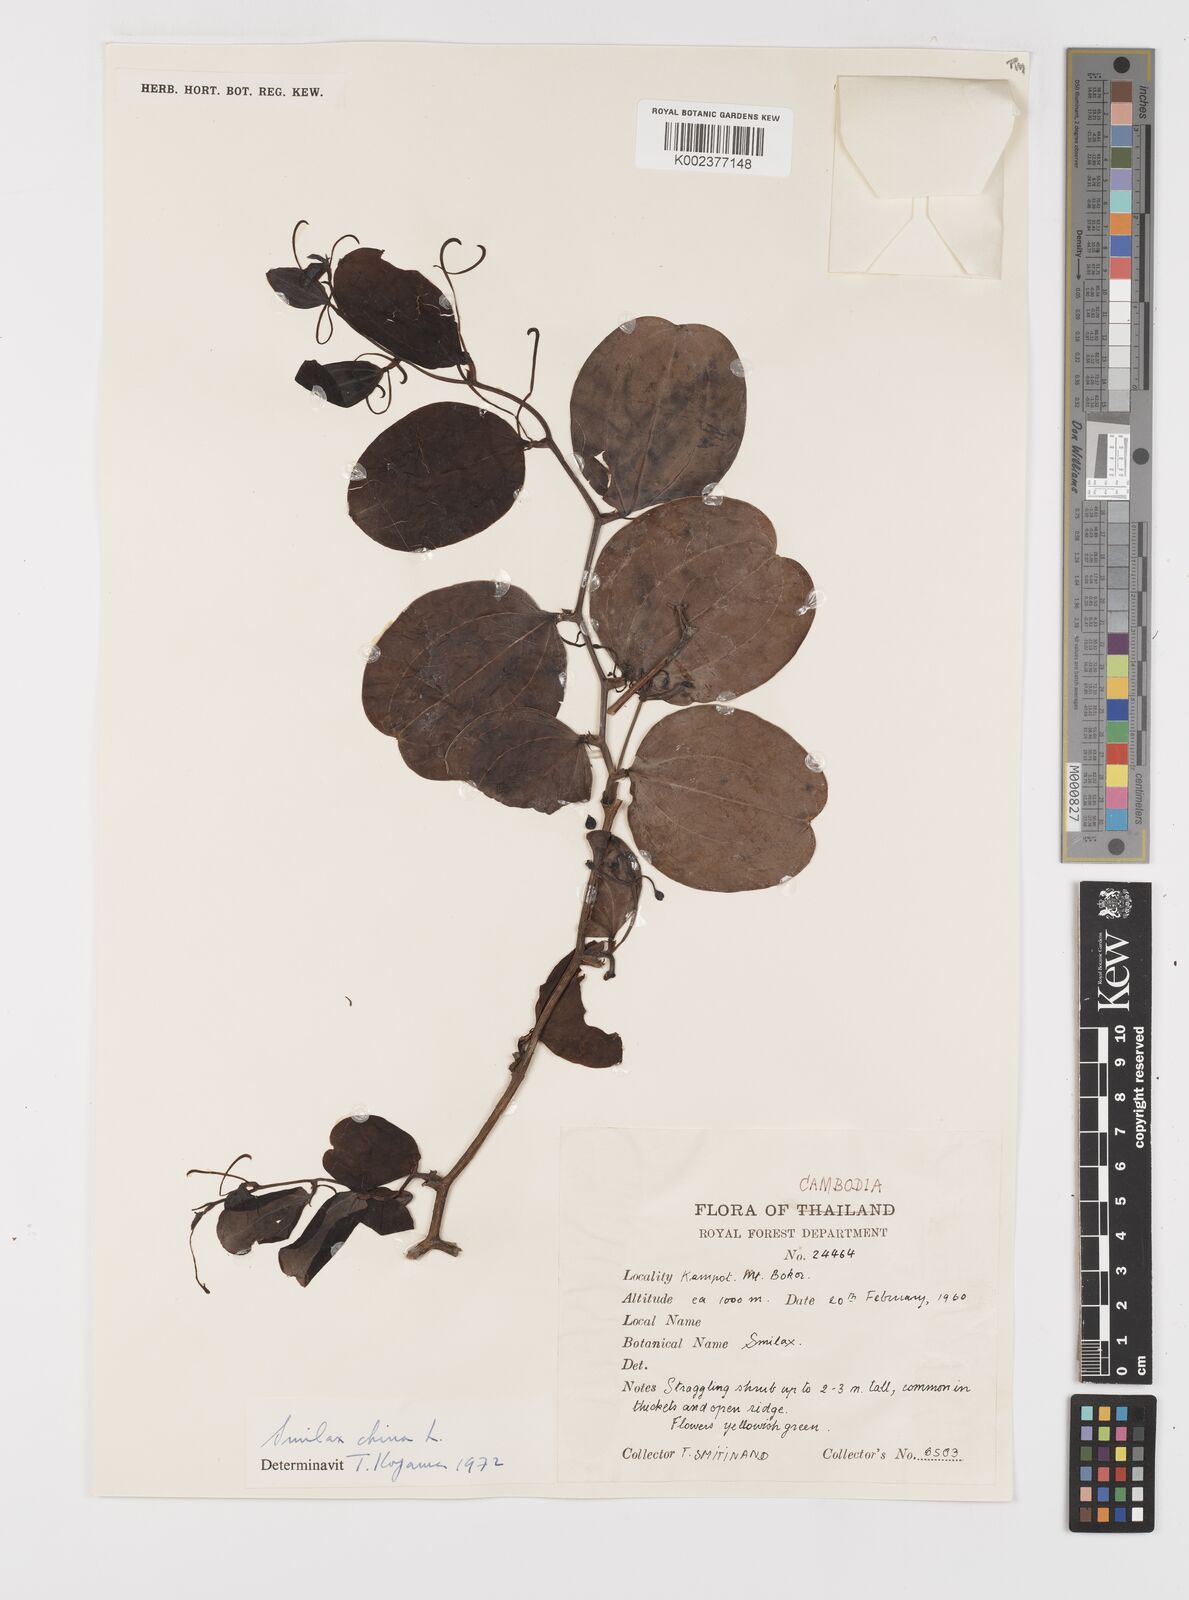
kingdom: Plantae
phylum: Tracheophyta
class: Liliopsida
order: Liliales
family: Smilacaceae
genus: Smilax
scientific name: Smilax china
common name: Chinaroot
